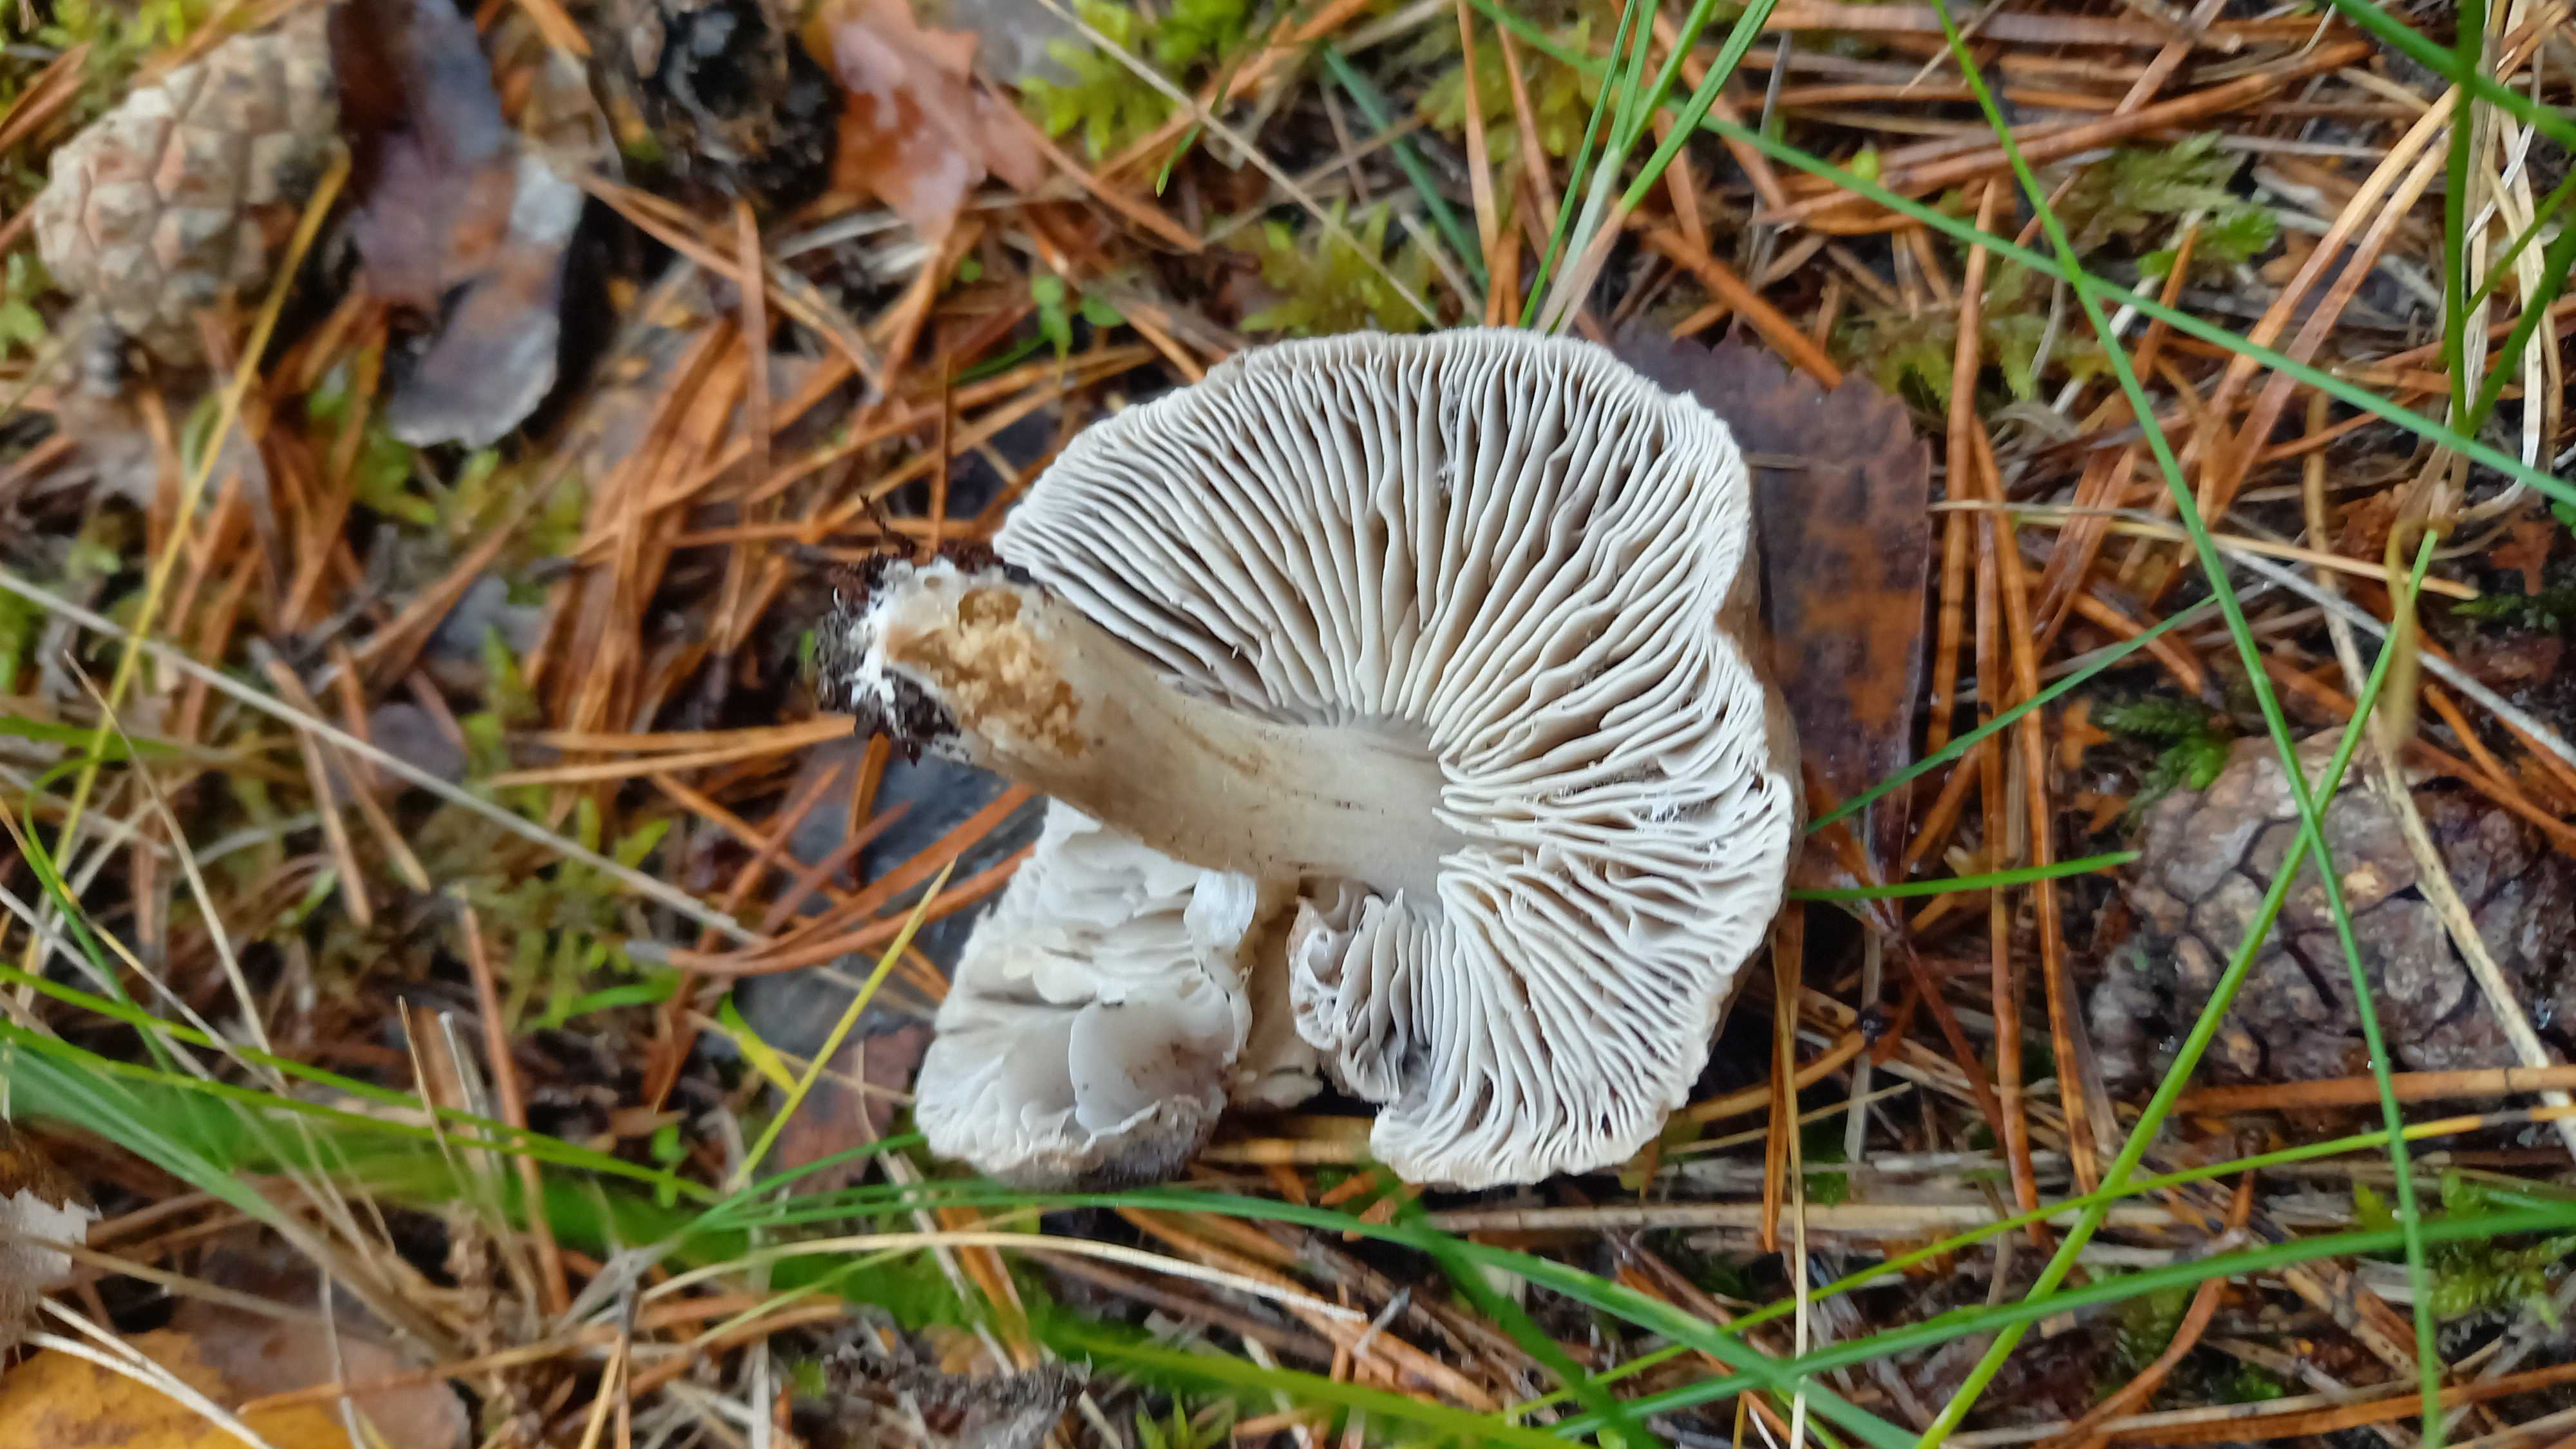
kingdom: Fungi
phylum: Basidiomycota
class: Agaricomycetes
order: Agaricales
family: Tricholomataceae
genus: Tricholoma
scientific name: Tricholoma terreum
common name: jordfarvet ridderhat
